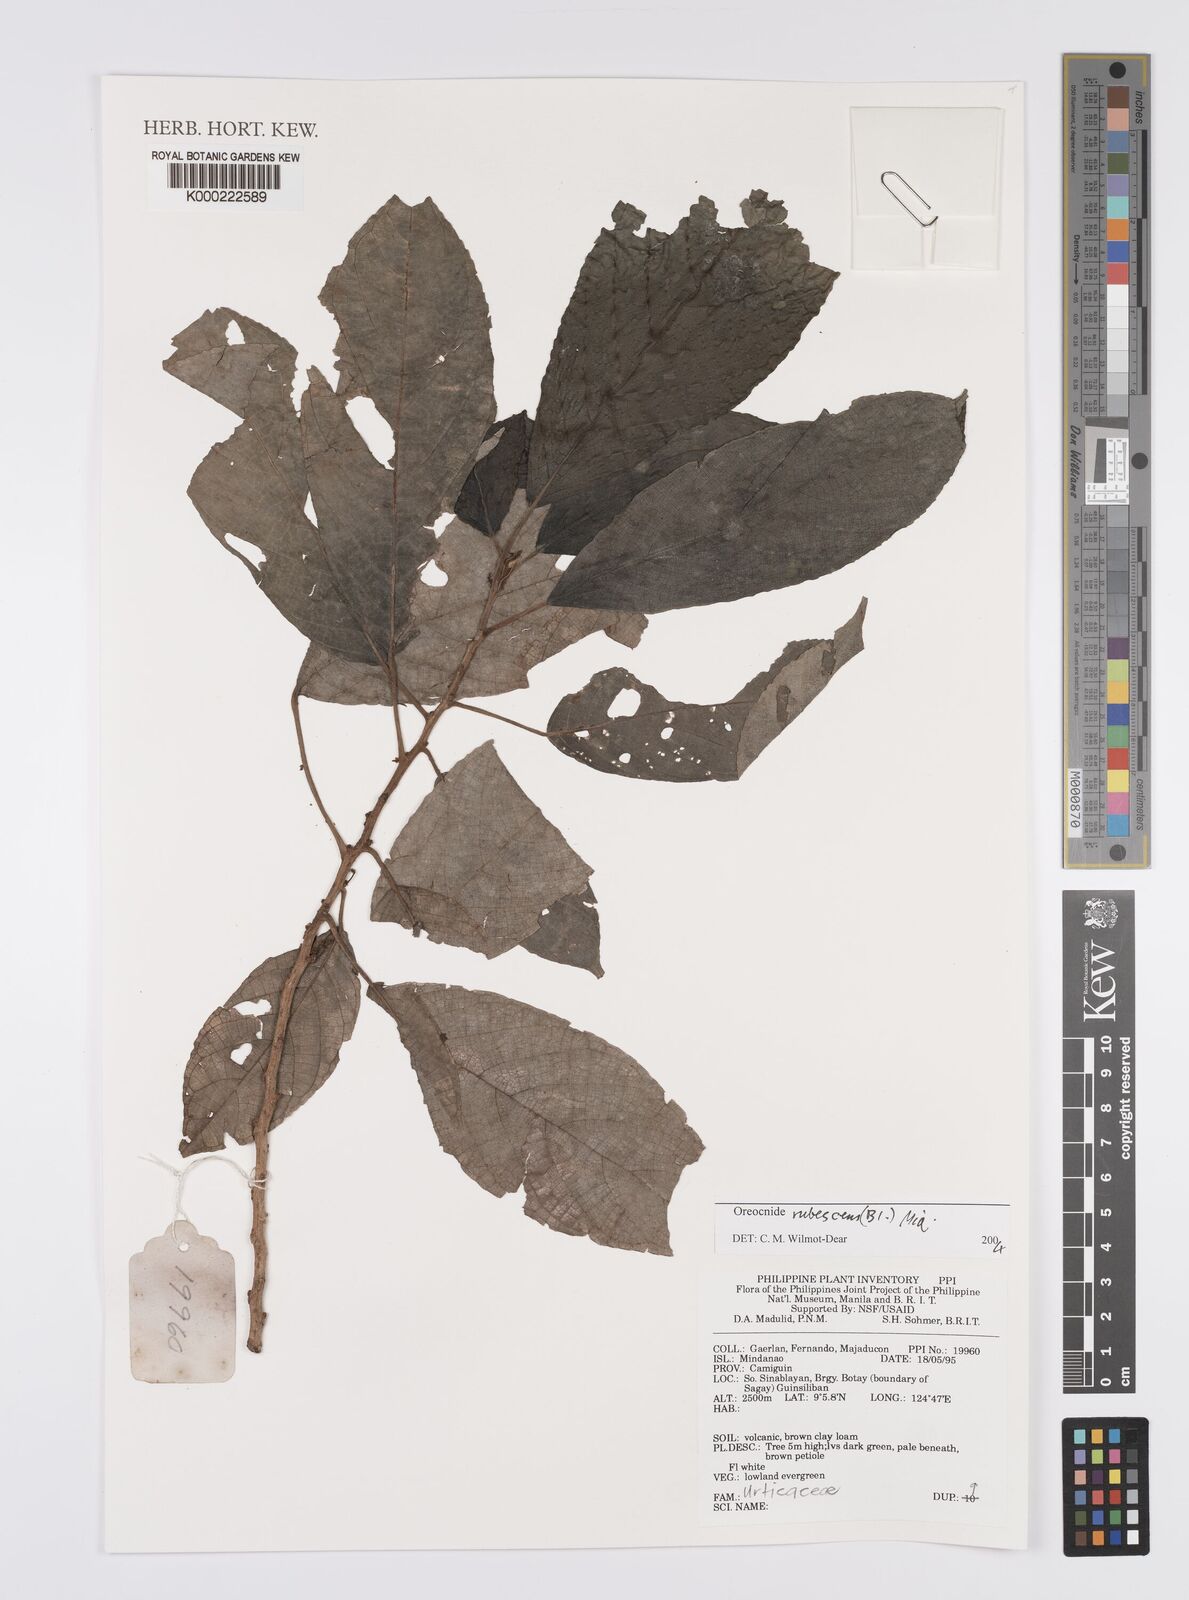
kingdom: Plantae
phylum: Tracheophyta
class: Magnoliopsida
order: Rosales
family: Urticaceae
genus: Oreocnide
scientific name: Oreocnide rubescens
